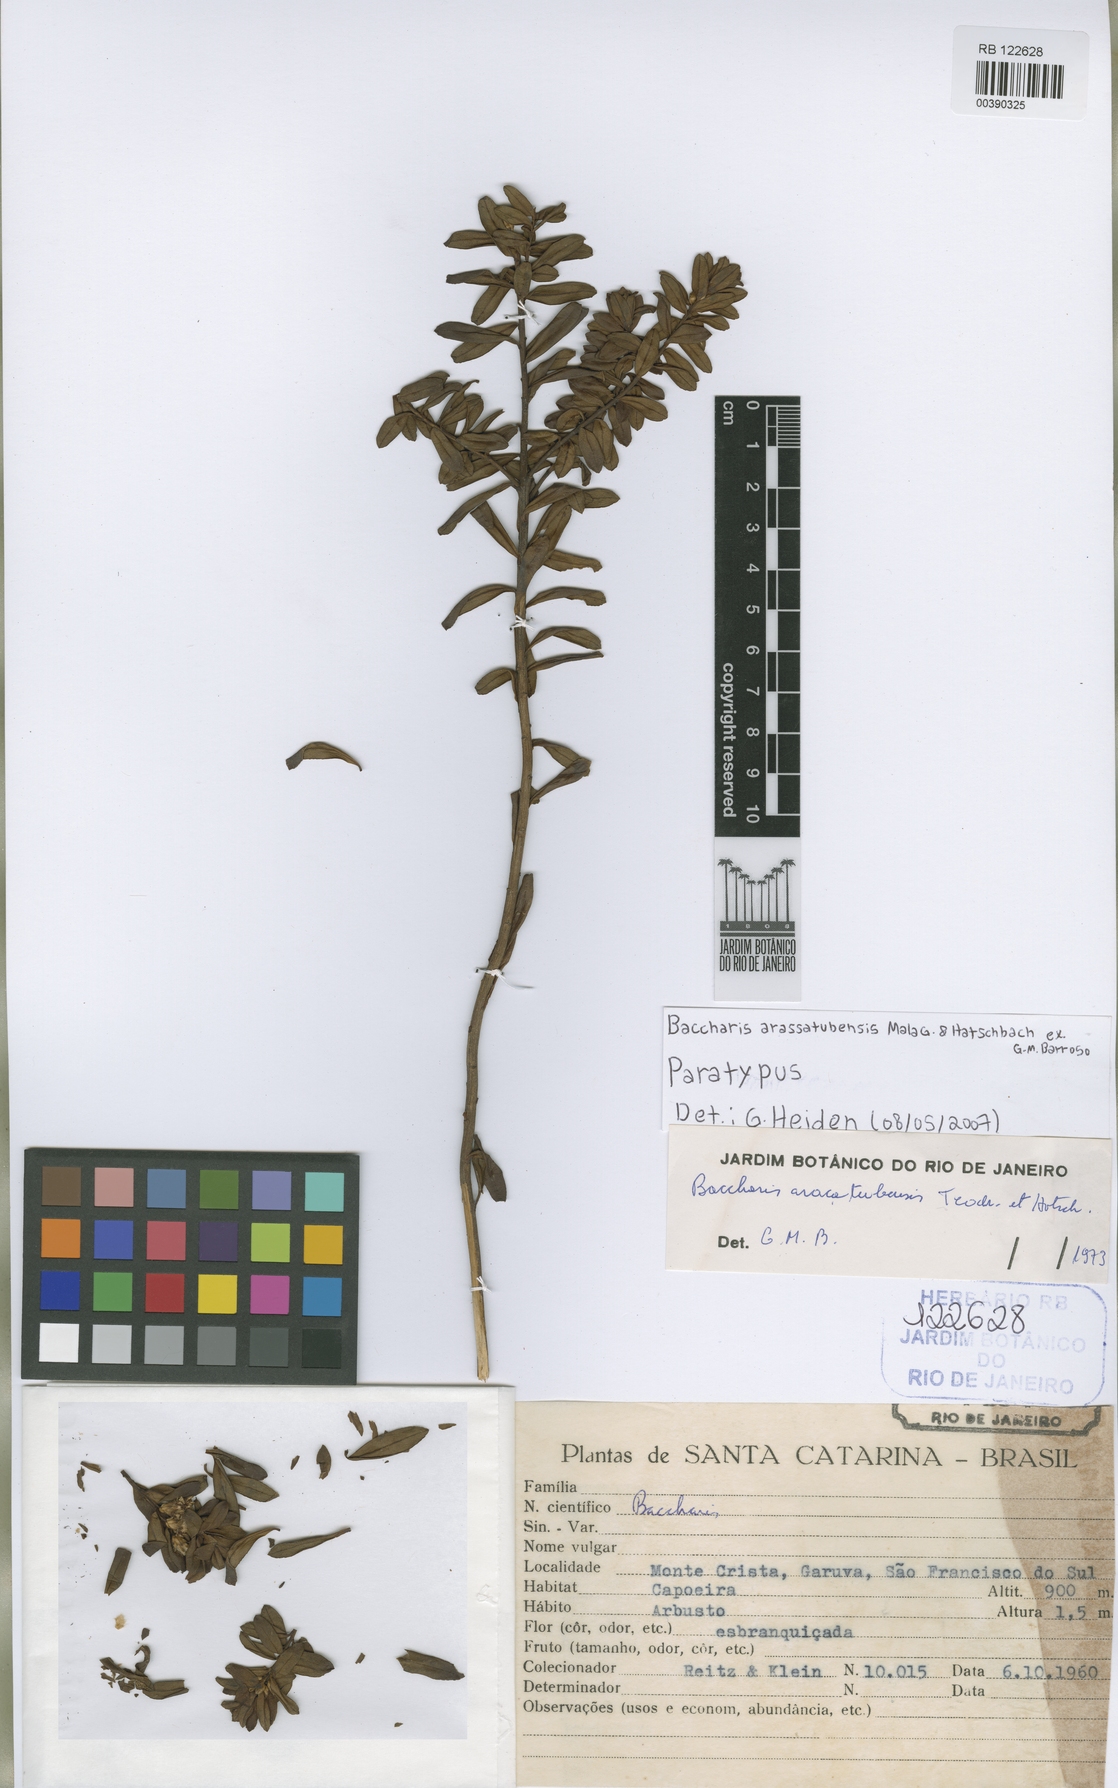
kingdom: Plantae
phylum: Tracheophyta
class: Magnoliopsida
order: Asterales
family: Asteraceae
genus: Baccharis
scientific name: Baccharis aracatubensis
